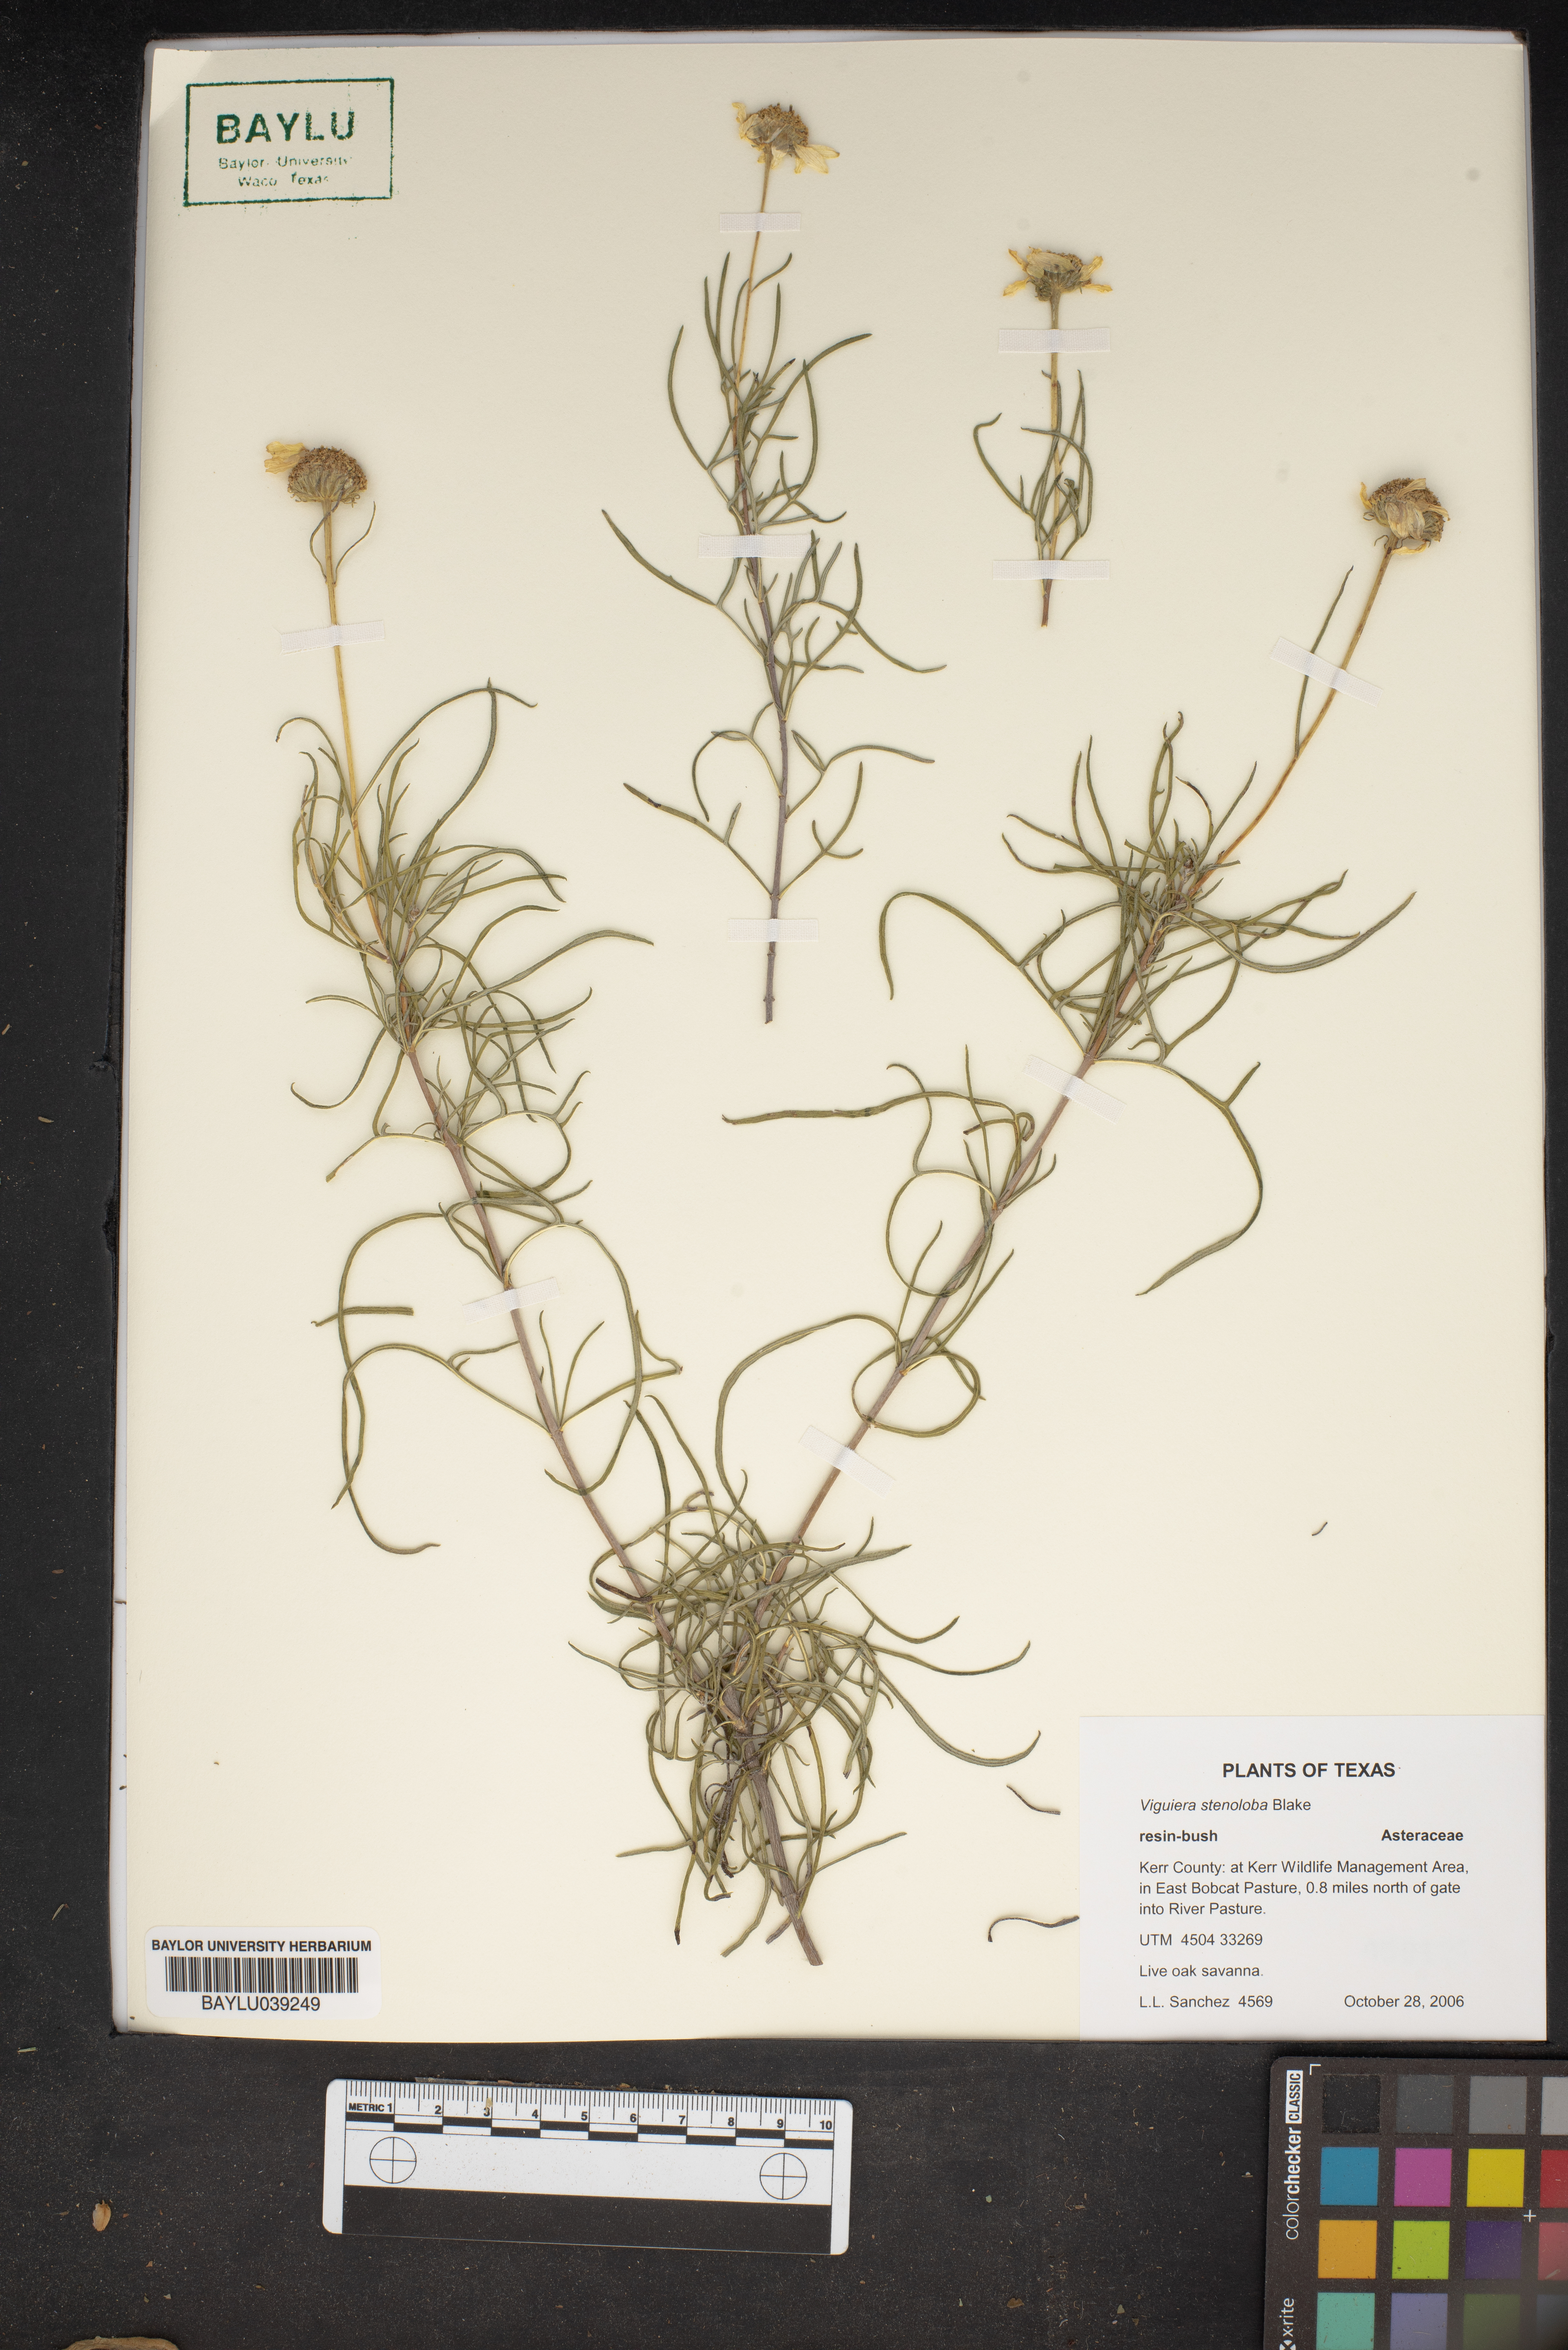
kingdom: Plantae
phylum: Tracheophyta
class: Magnoliopsida
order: Asterales
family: Asteraceae
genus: Sidneya
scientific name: Sidneya tenuifolia
